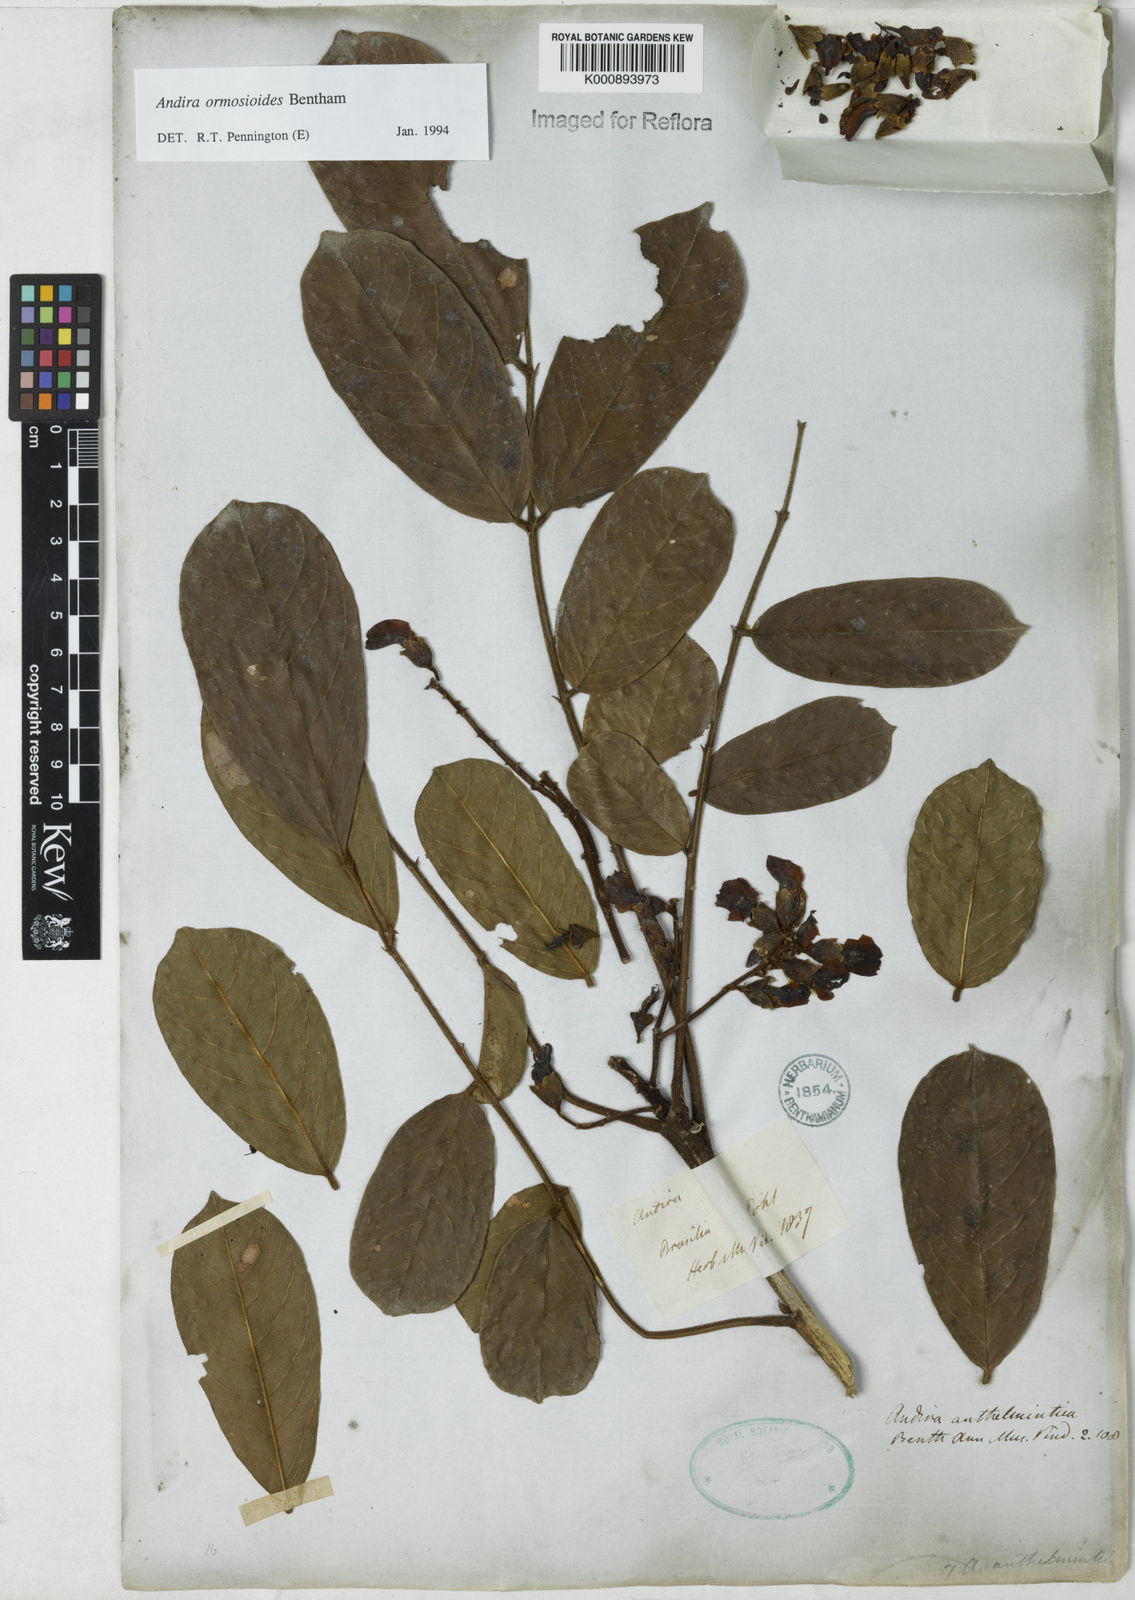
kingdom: Plantae
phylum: Tracheophyta
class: Magnoliopsida
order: Fabales
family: Fabaceae
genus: Andira
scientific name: Andira
